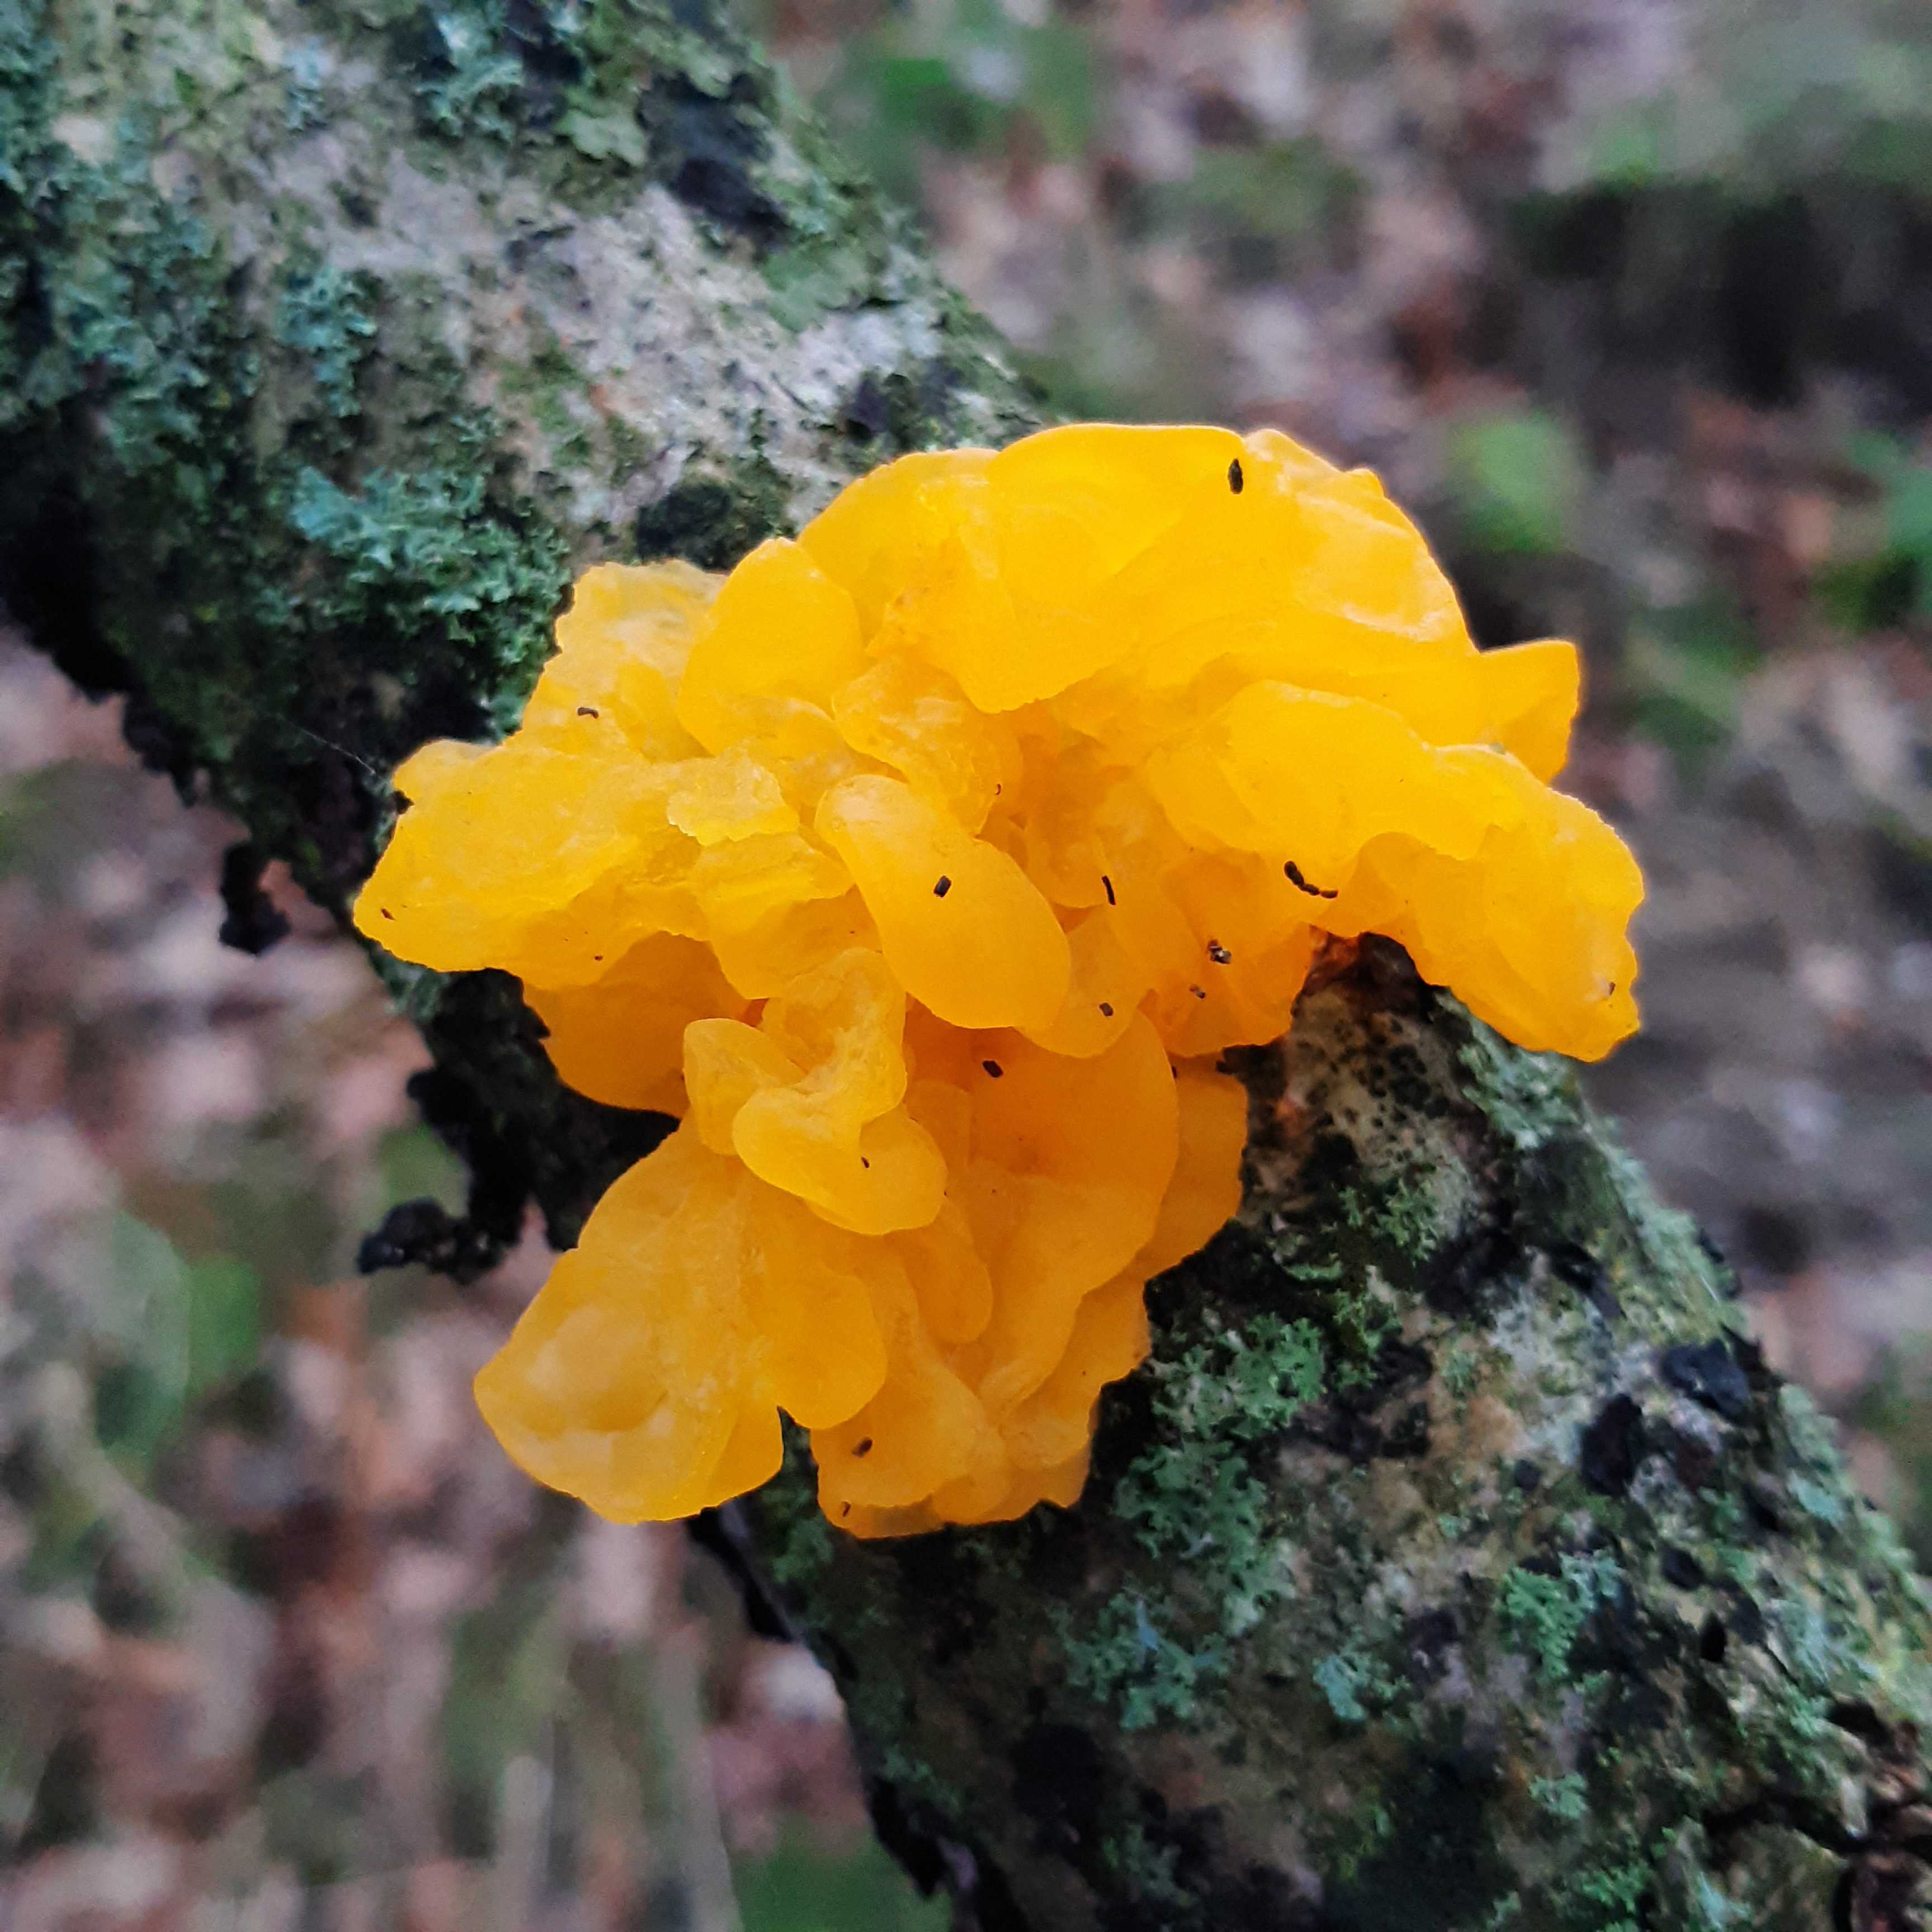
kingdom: Fungi
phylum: Basidiomycota
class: Tremellomycetes
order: Tremellales
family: Tremellaceae
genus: Tremella
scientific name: Tremella mesenterica
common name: gul bævresvamp
